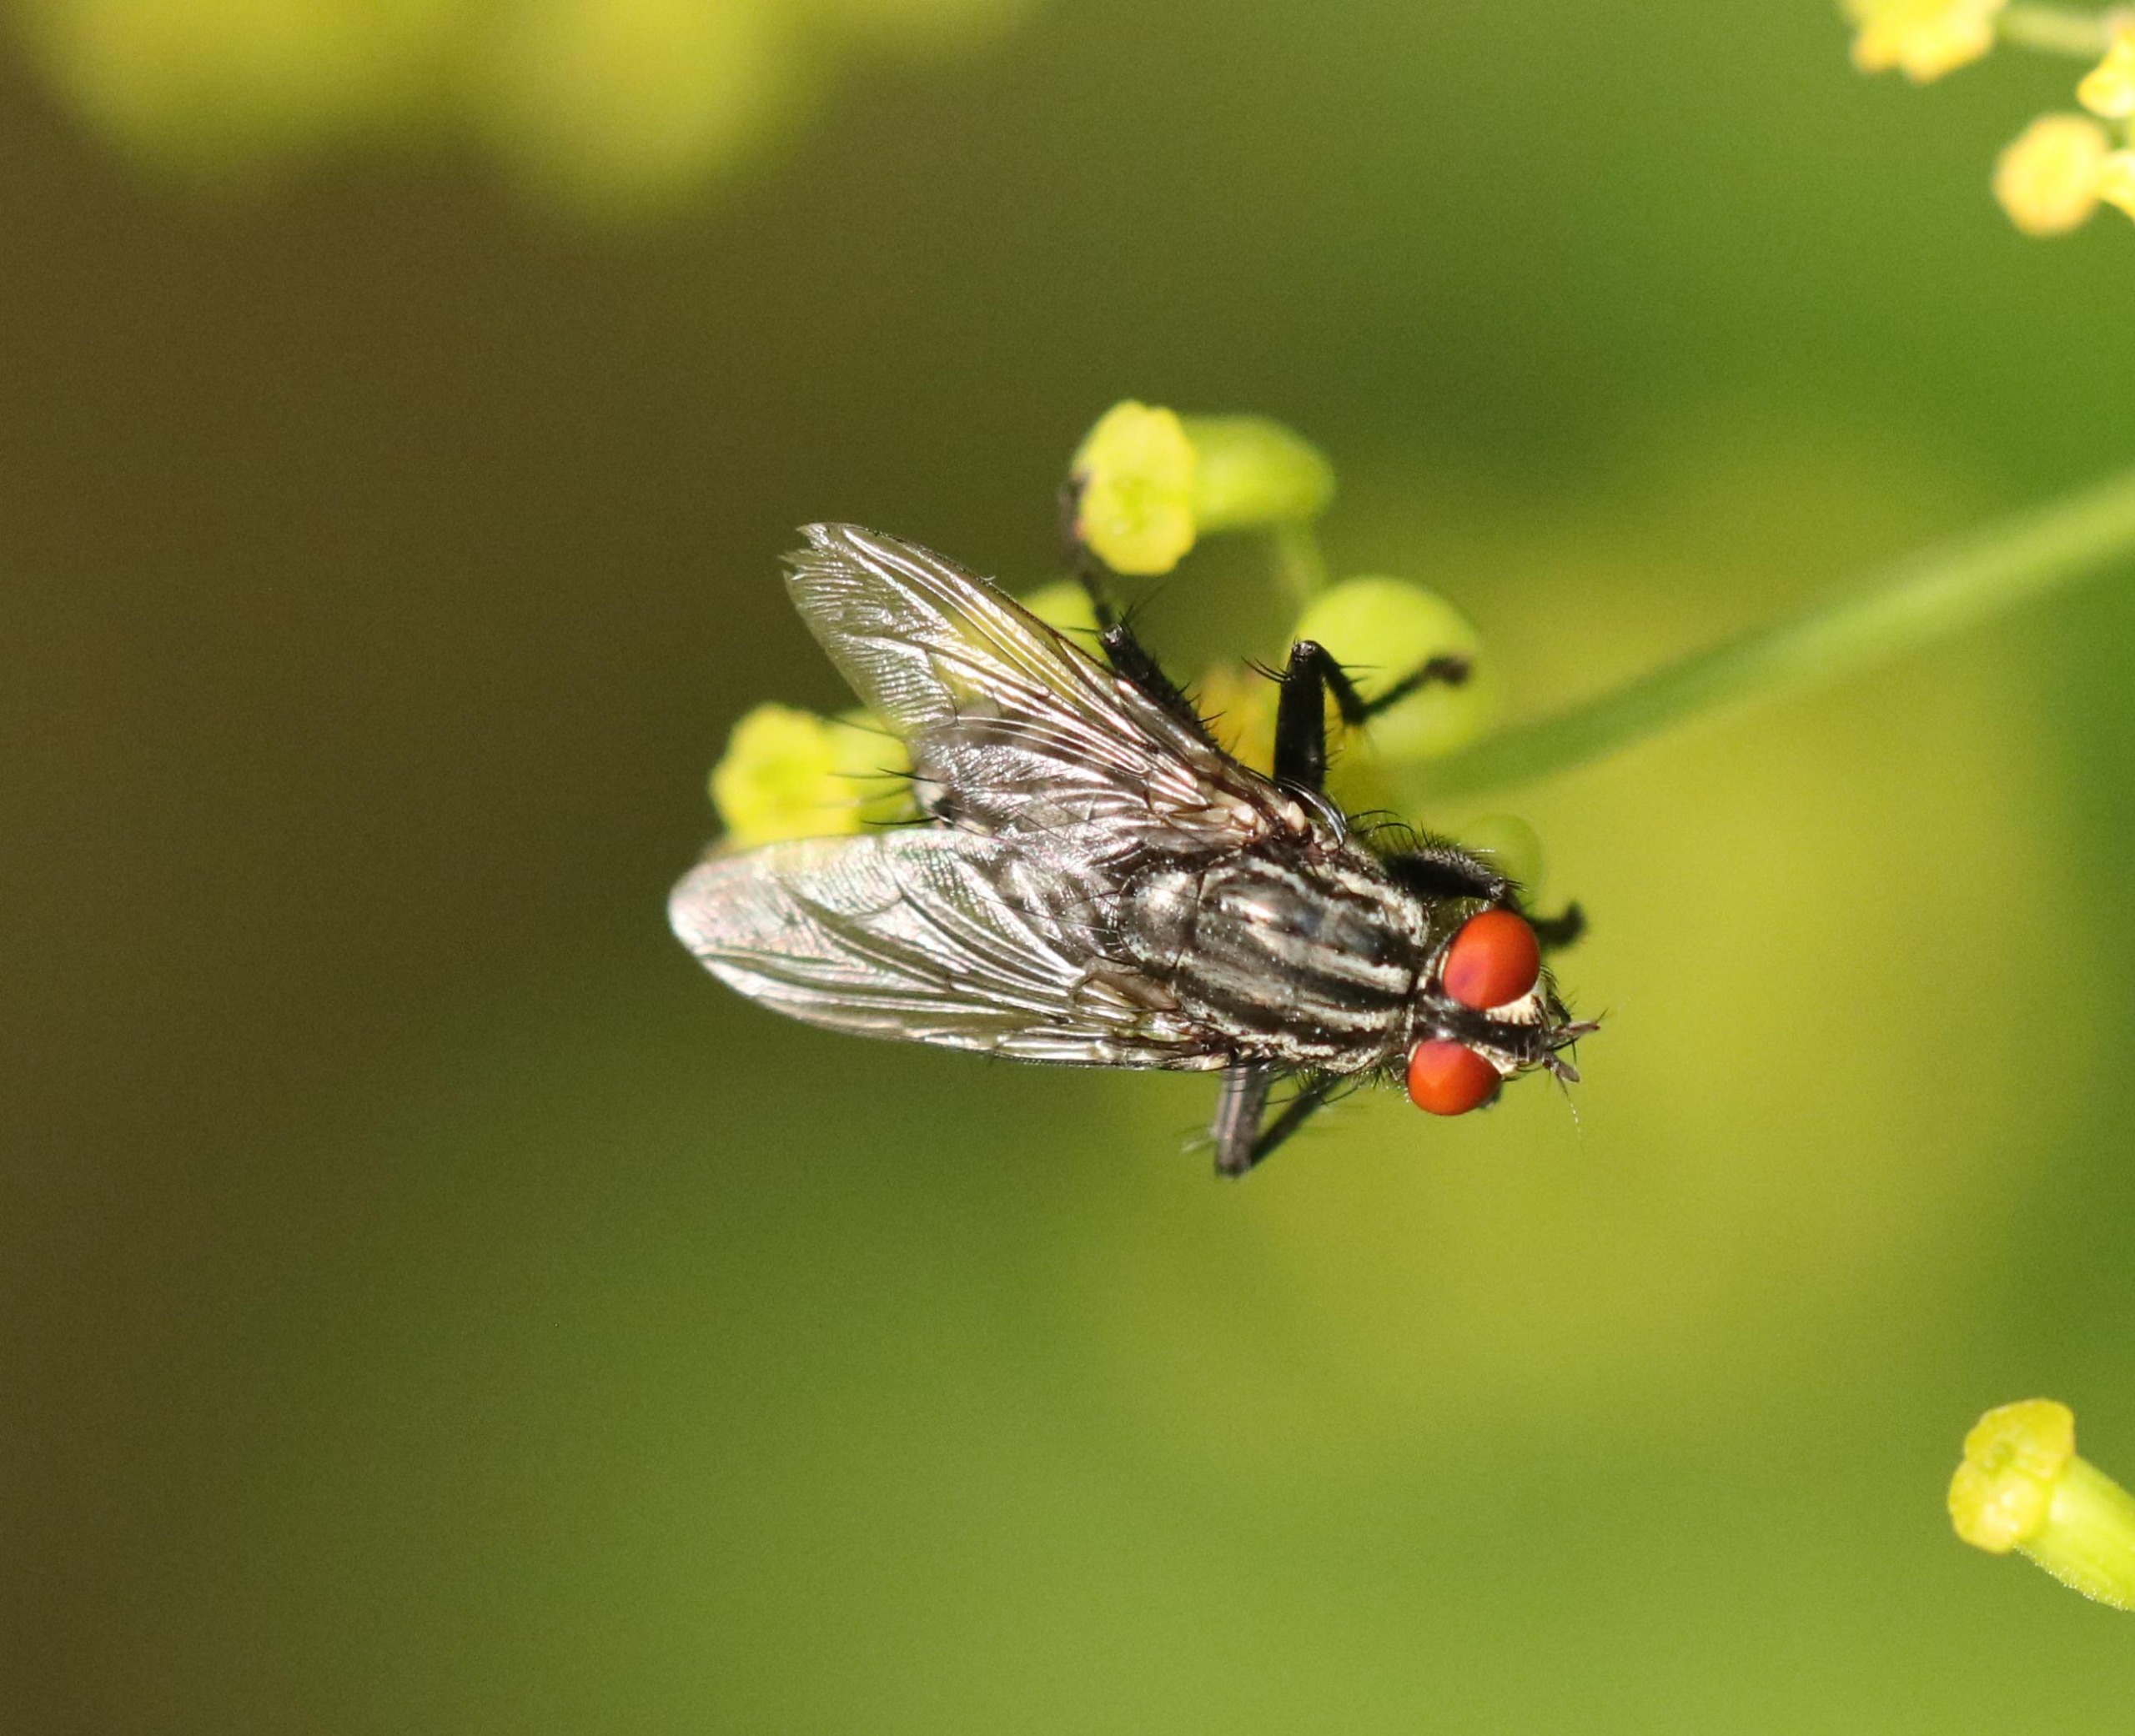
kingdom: Animalia
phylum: Arthropoda
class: Insecta
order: Diptera
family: Sarcophagidae
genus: Sarcophaga
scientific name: Sarcophaga
